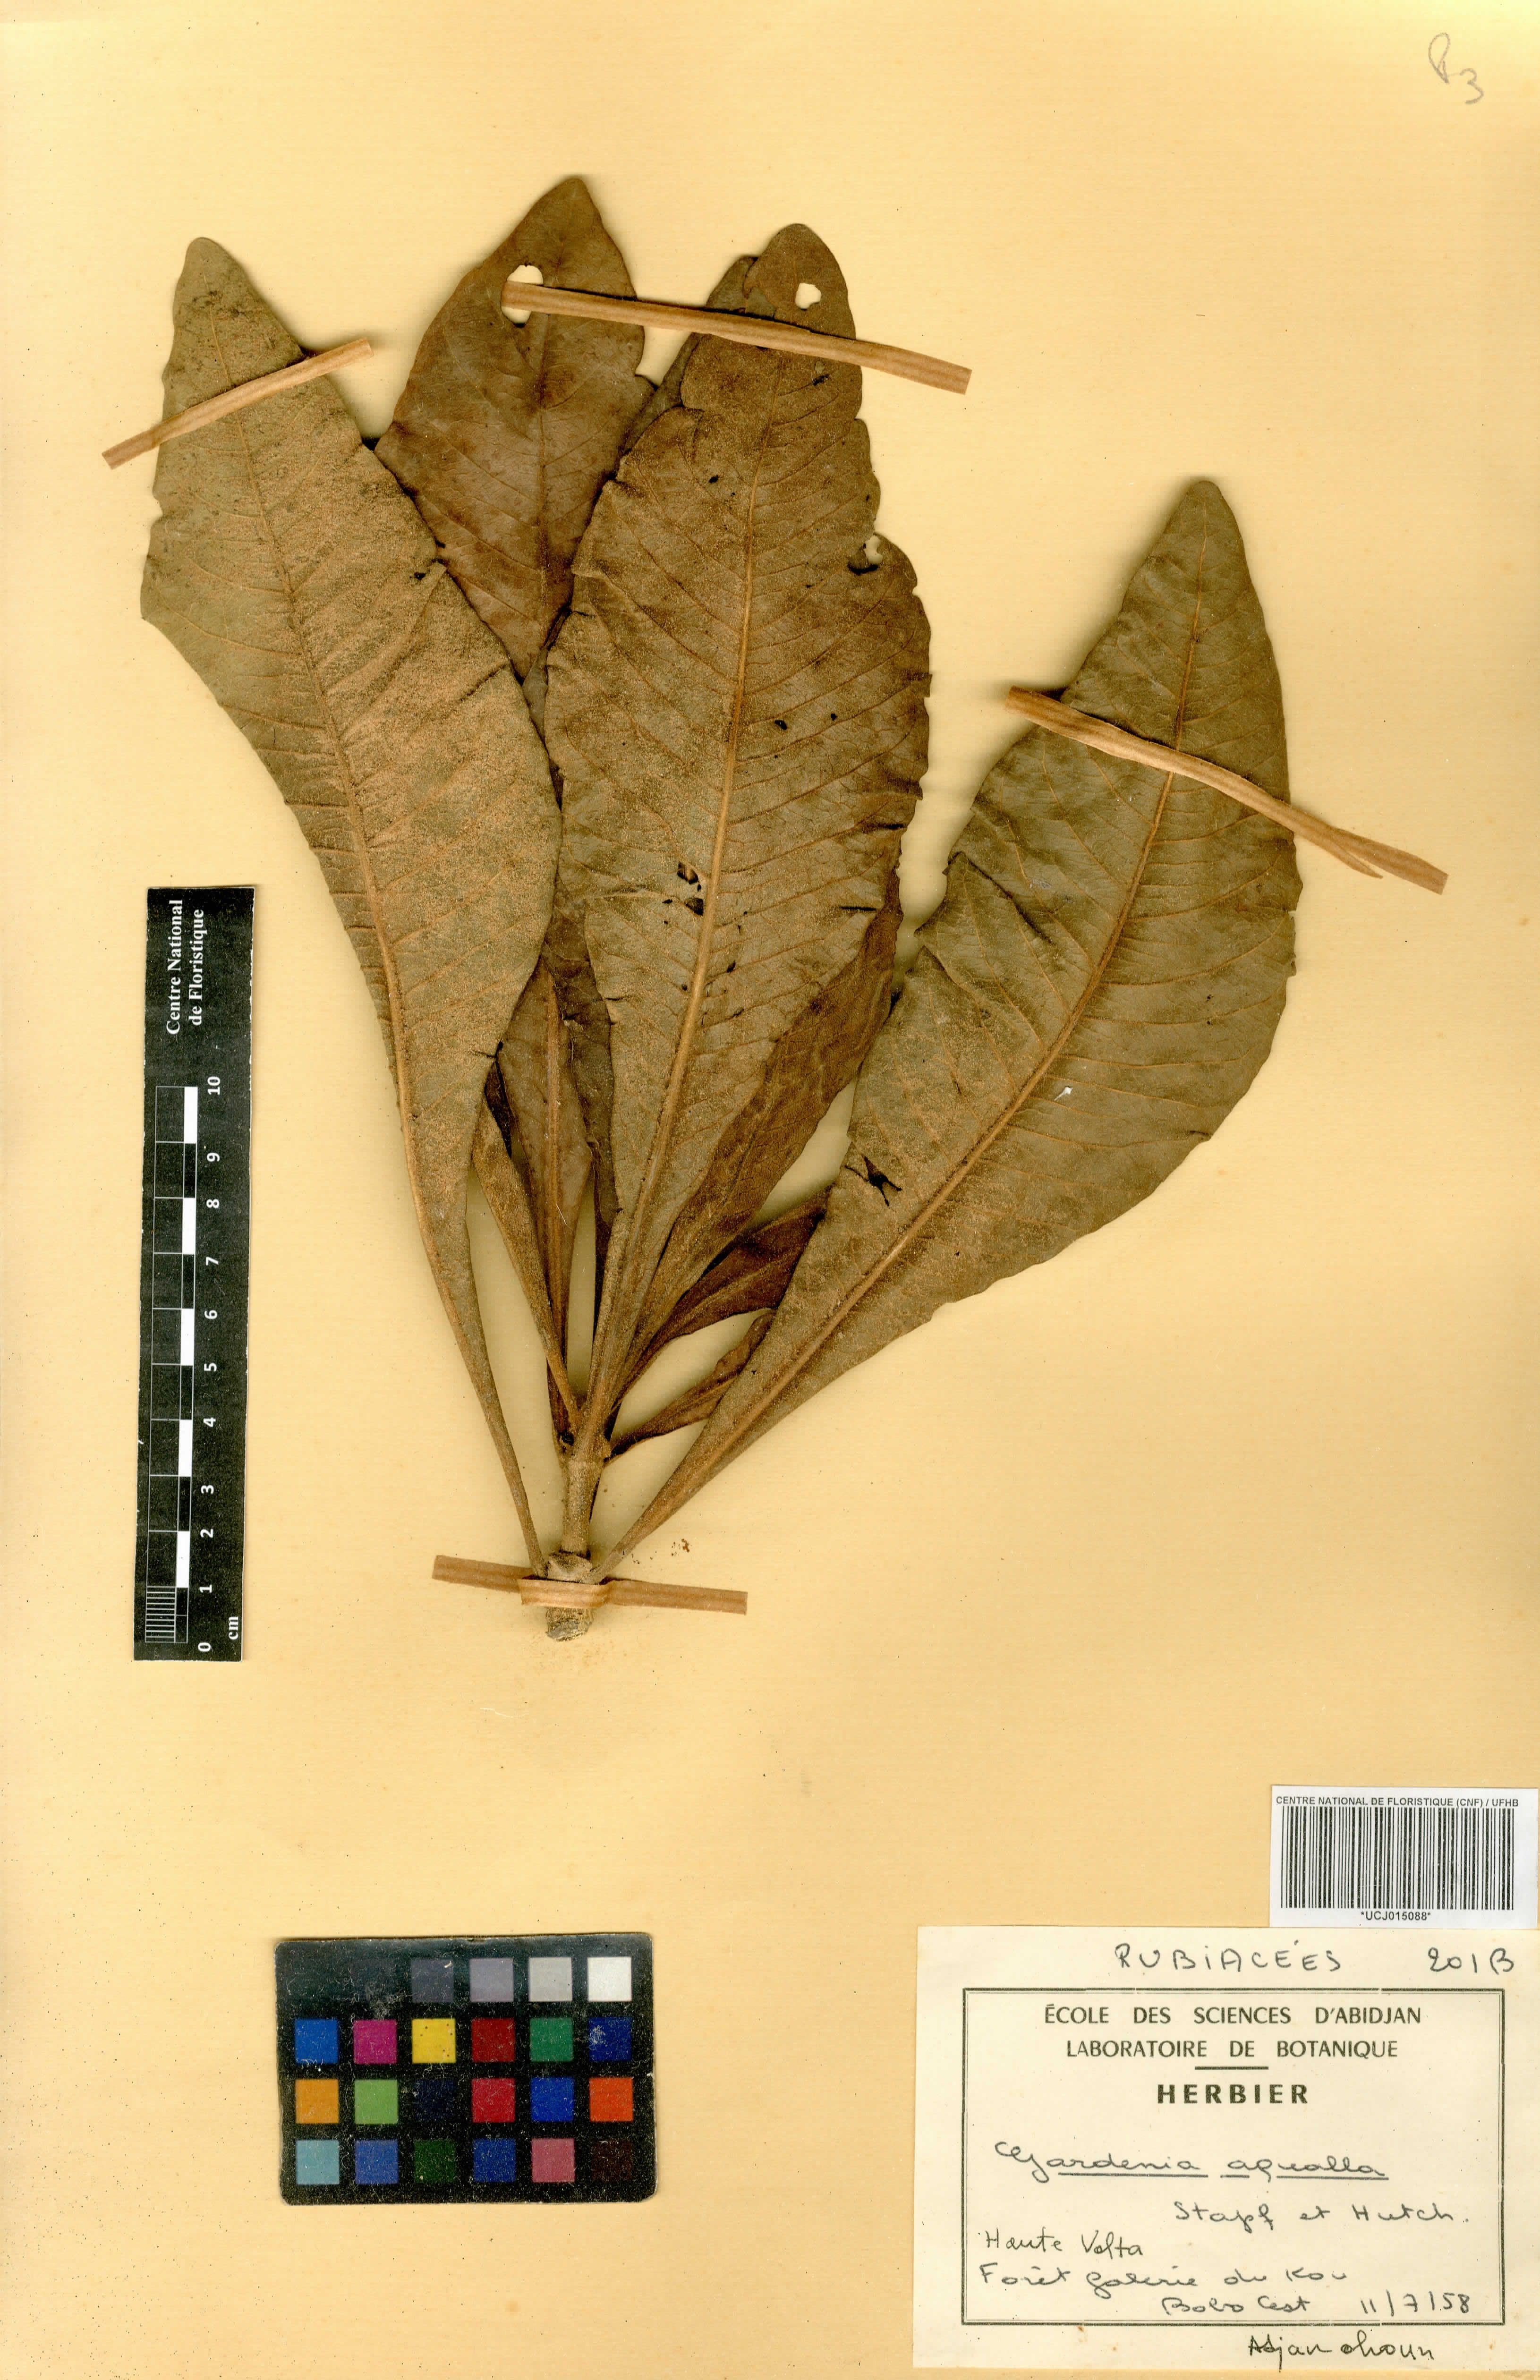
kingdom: Plantae
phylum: Tracheophyta
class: Magnoliopsida
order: Gentianales
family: Rubiaceae
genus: Gardenia
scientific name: Gardenia aqualla
